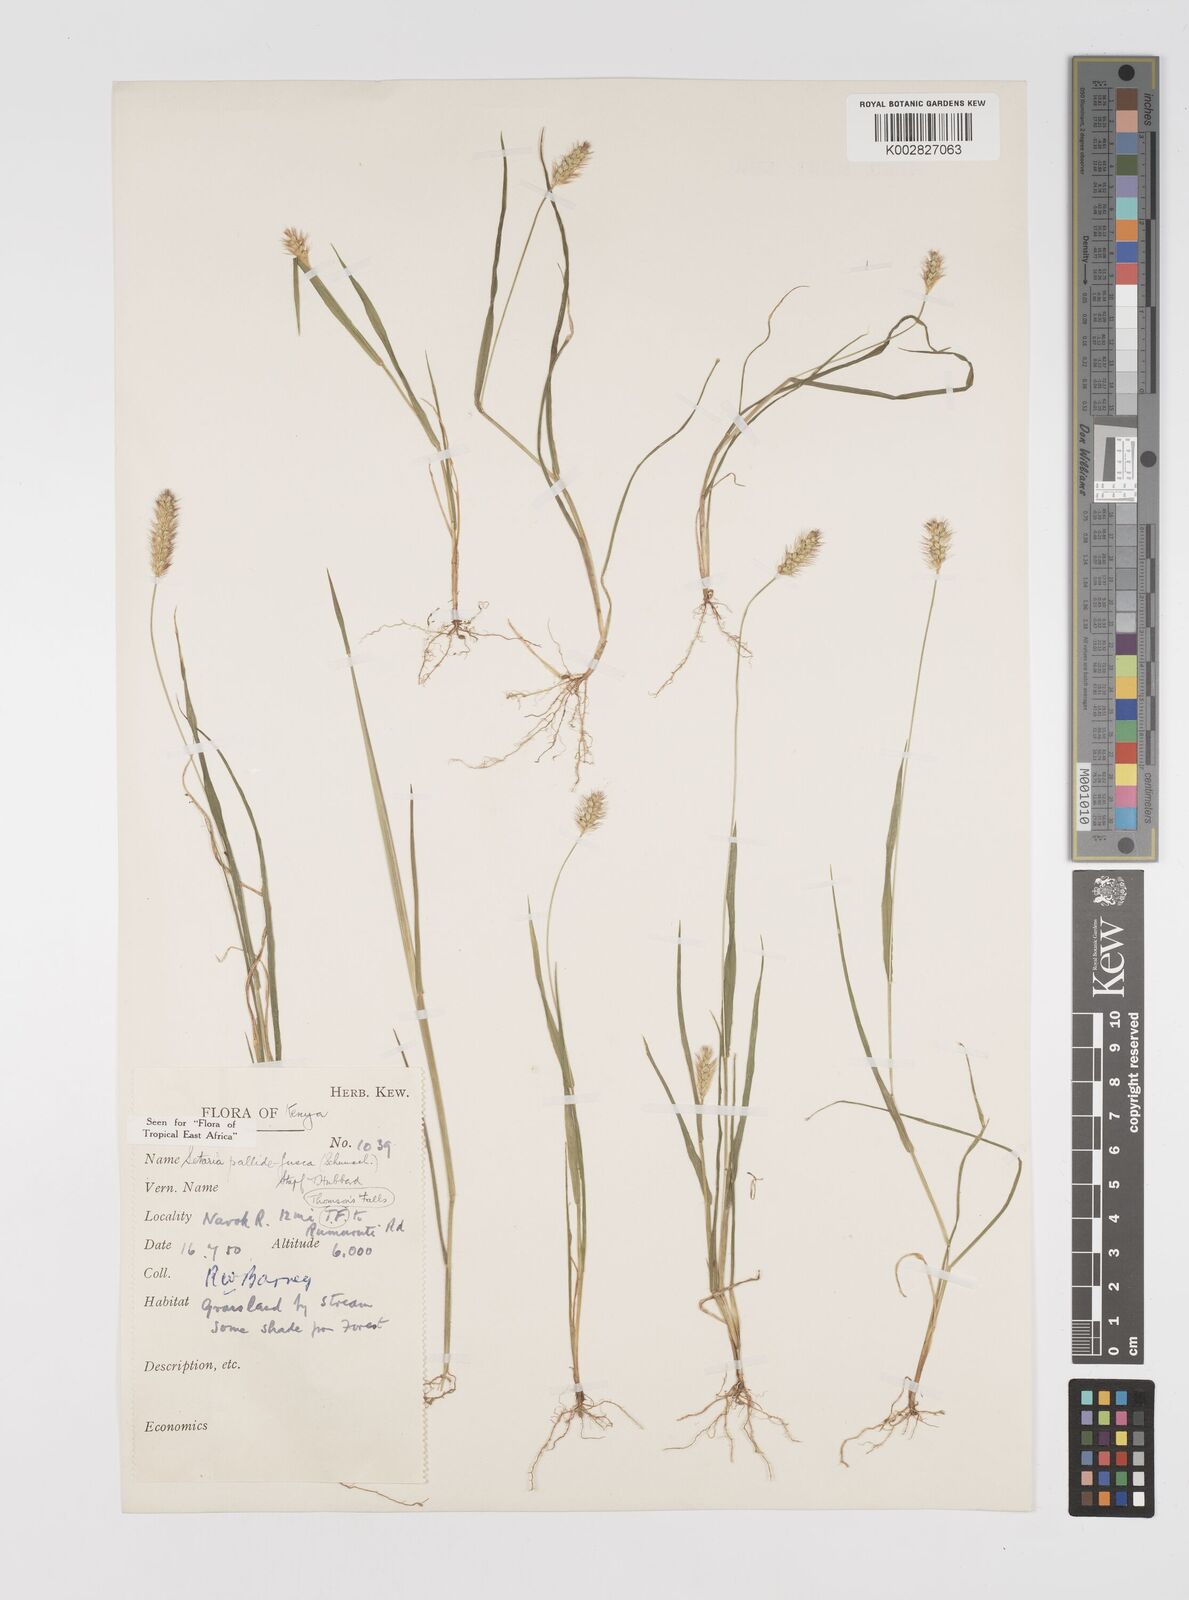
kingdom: Plantae
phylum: Tracheophyta
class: Liliopsida
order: Poales
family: Poaceae
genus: Setaria
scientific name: Setaria pumila
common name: Yellow bristle-grass
